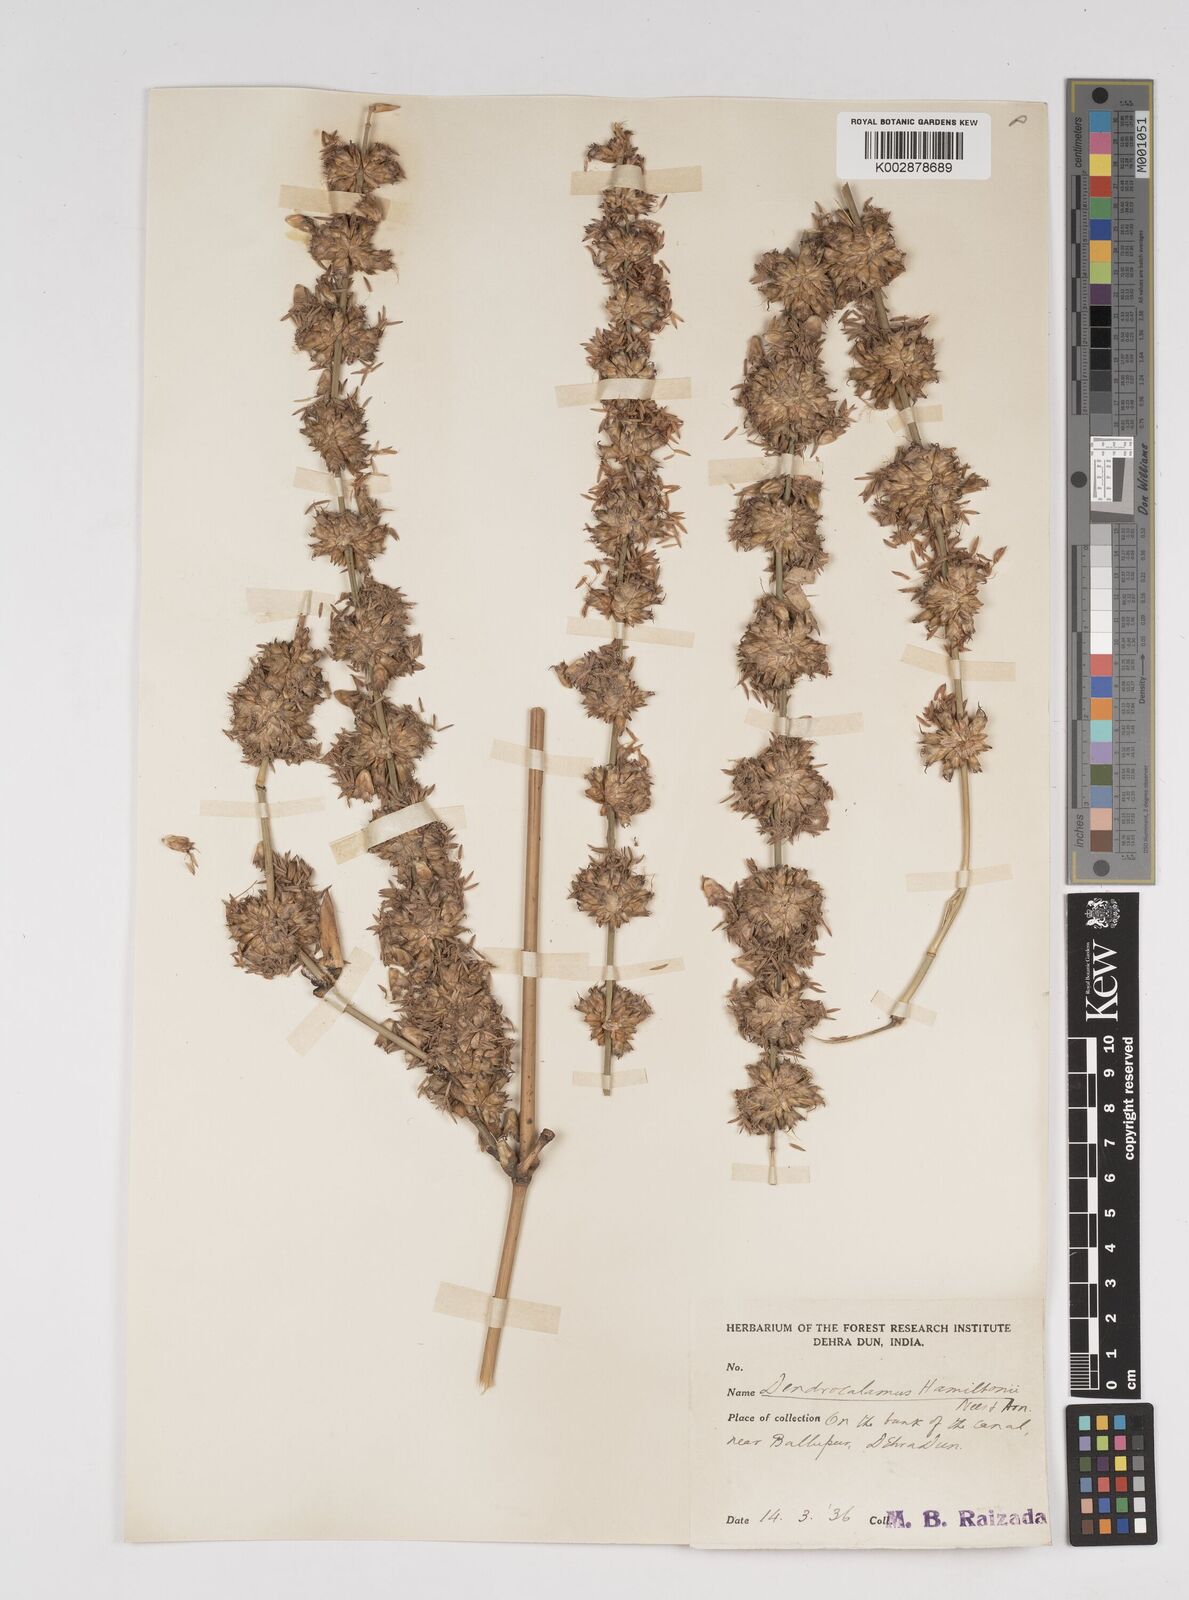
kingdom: Plantae
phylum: Tracheophyta
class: Liliopsida
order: Poales
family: Poaceae
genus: Dendrocalamus
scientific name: Dendrocalamus hamiltonii
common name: Tama bamboo
